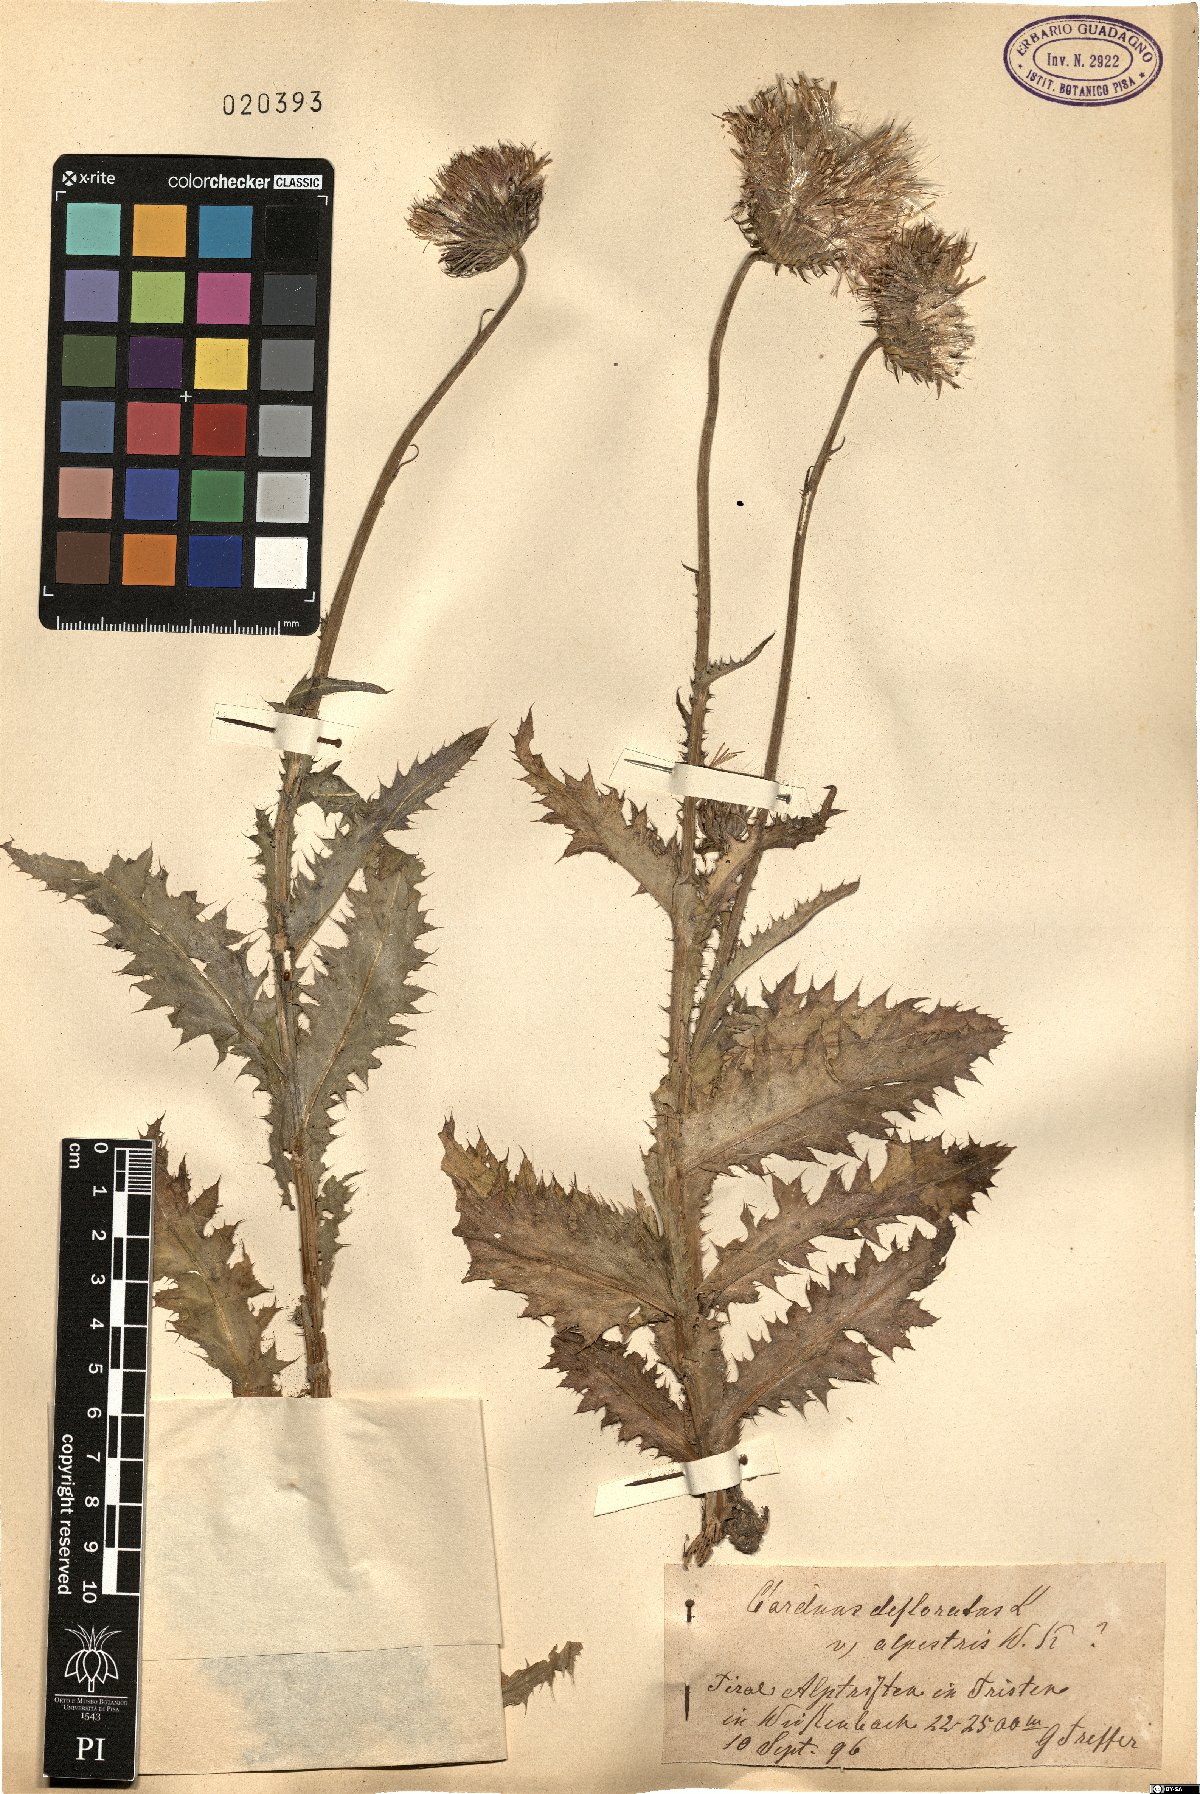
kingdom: Plantae
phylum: Tracheophyta
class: Magnoliopsida
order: Asterales
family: Asteraceae
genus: Carduus
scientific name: Carduus defloratus
